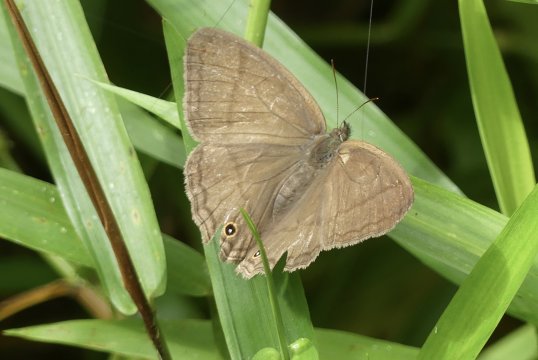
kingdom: Animalia
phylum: Arthropoda
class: Insecta
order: Lepidoptera
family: Nymphalidae
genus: Yphthimoides
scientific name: Yphthimoides renata
